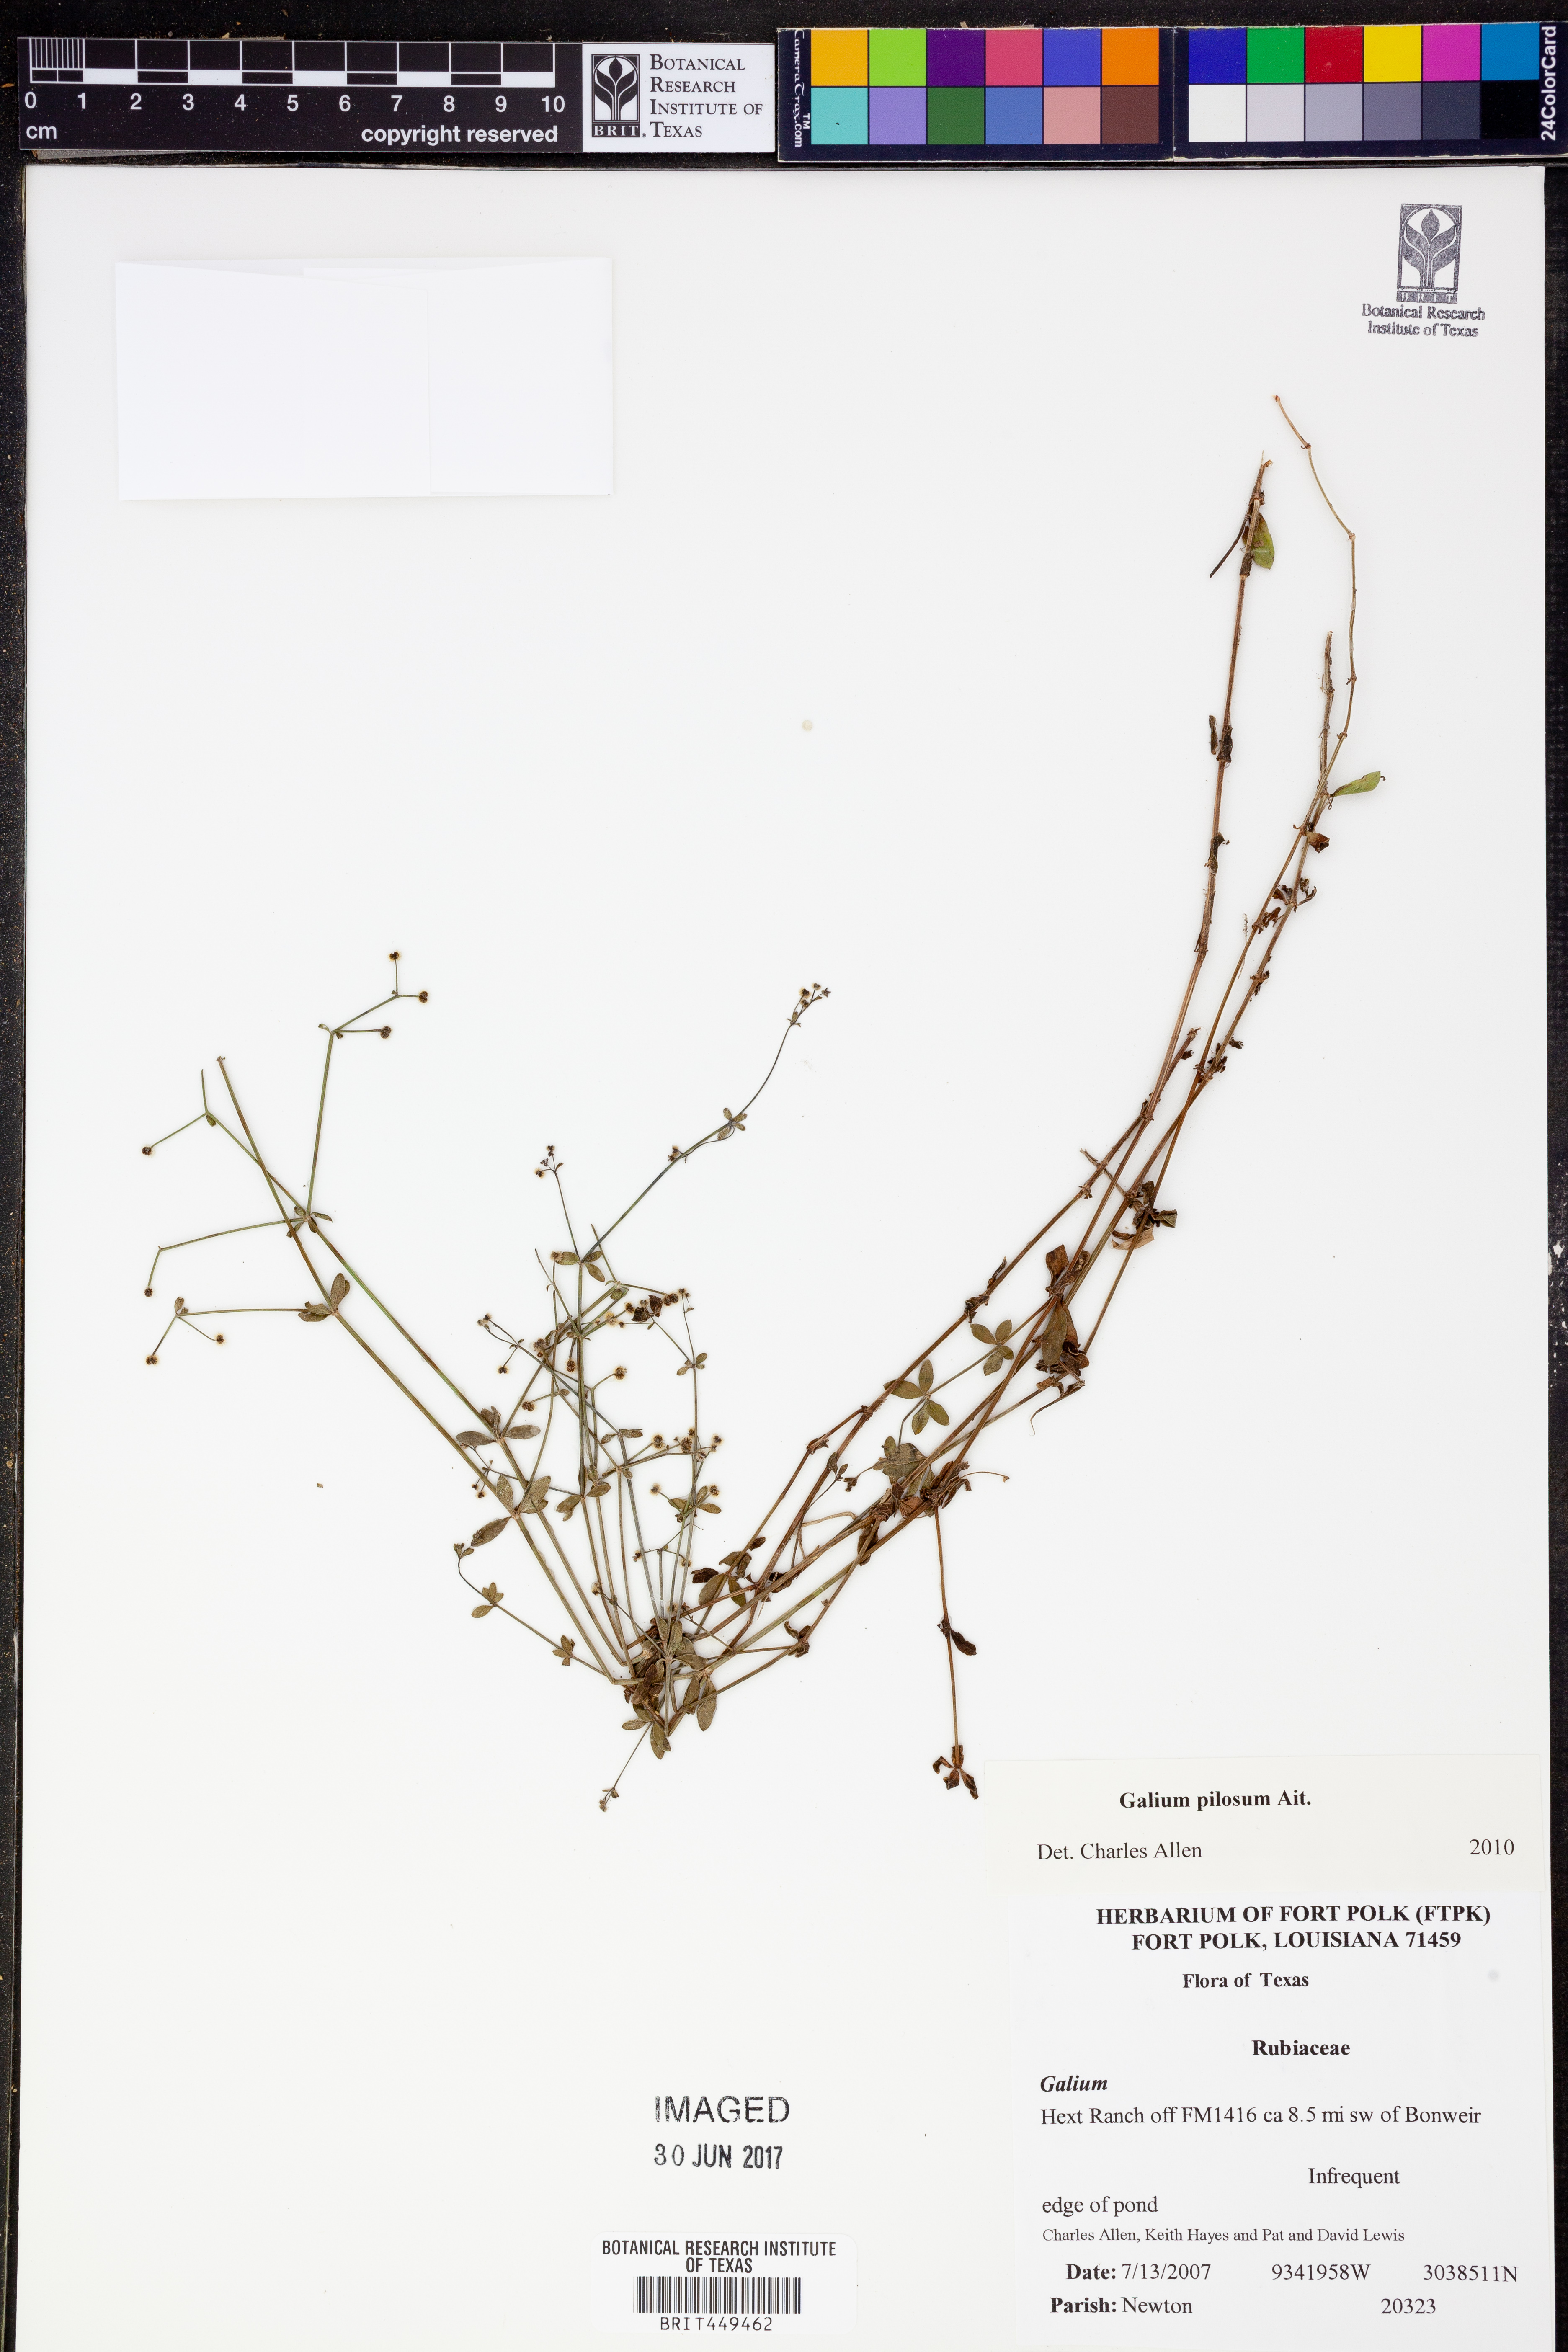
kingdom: Plantae
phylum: Tracheophyta
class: Magnoliopsida
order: Gentianales
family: Rubiaceae
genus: Galium
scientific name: Galium pilosum
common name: Hairy bedstraw
